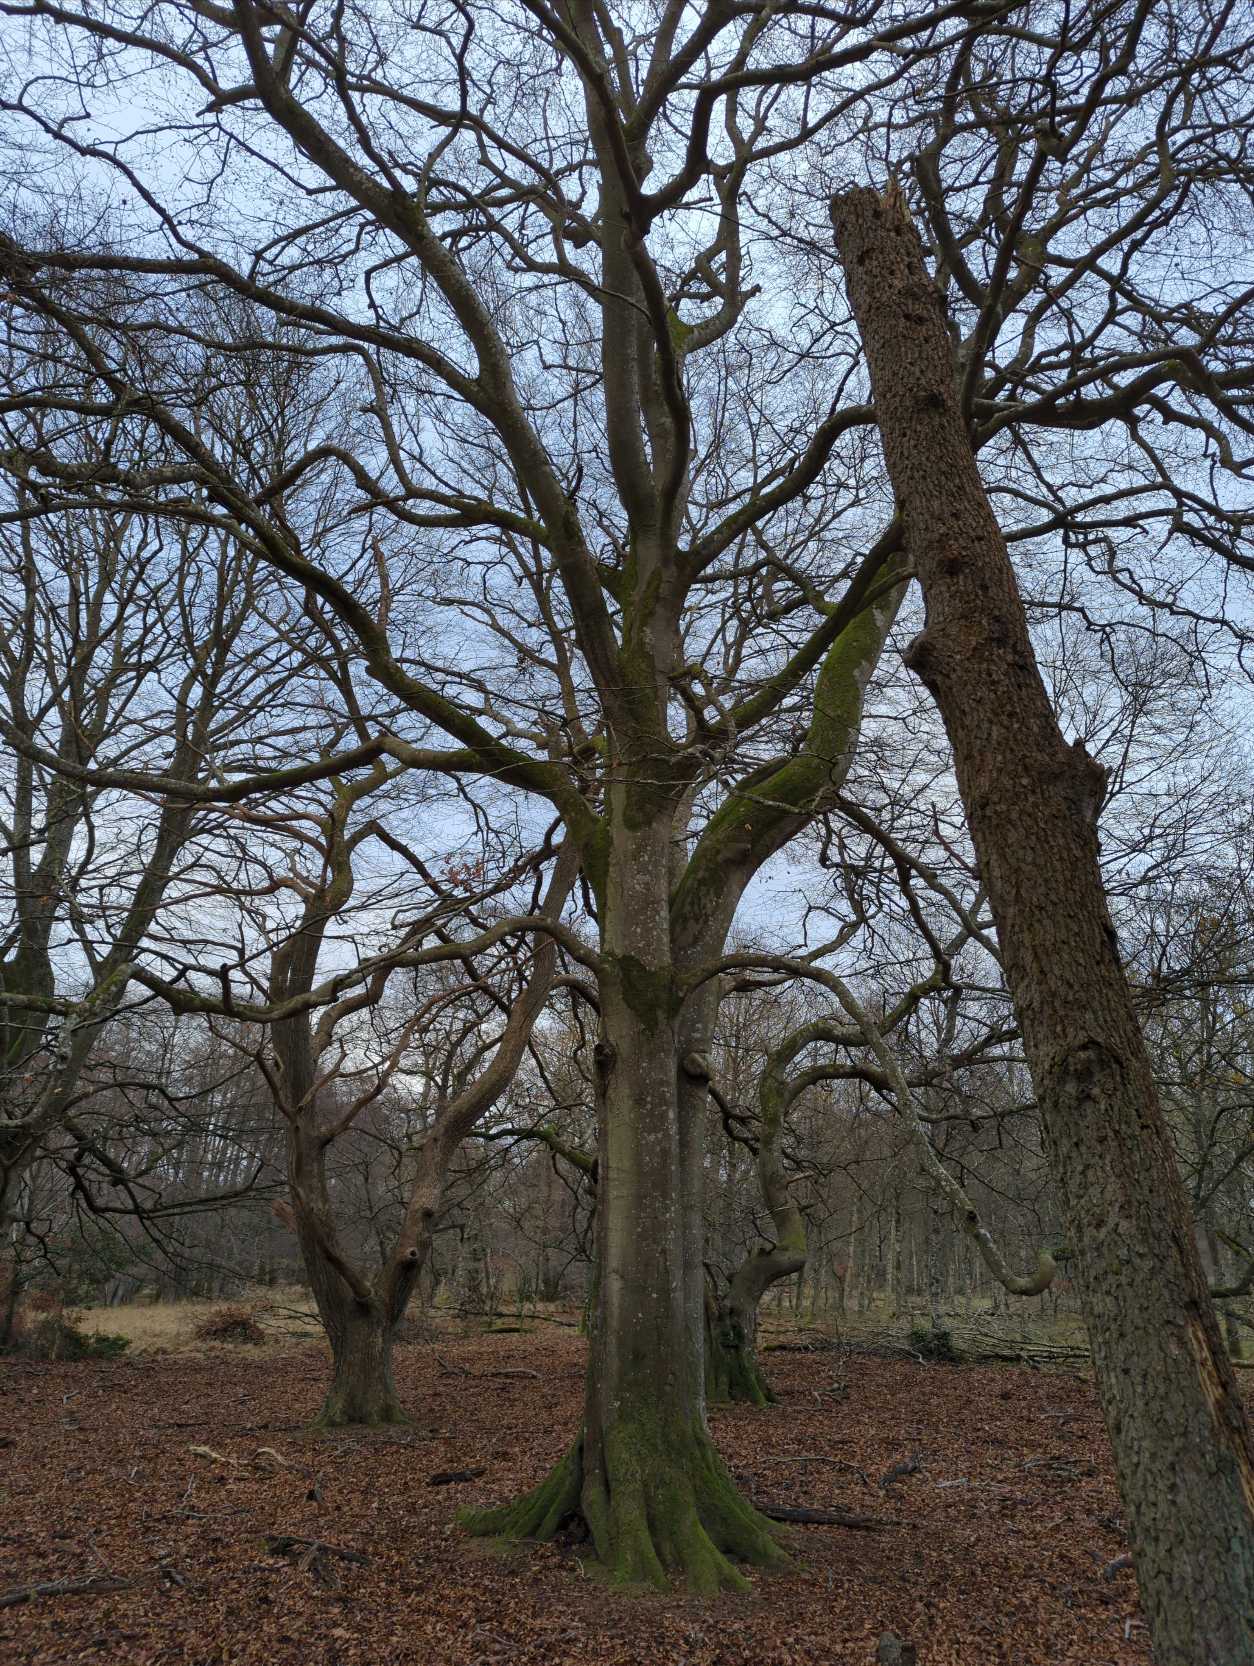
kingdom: Plantae
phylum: Tracheophyta
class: Magnoliopsida
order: Fagales
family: Fagaceae
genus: Fagus
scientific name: Fagus sylvatica
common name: Bøg
